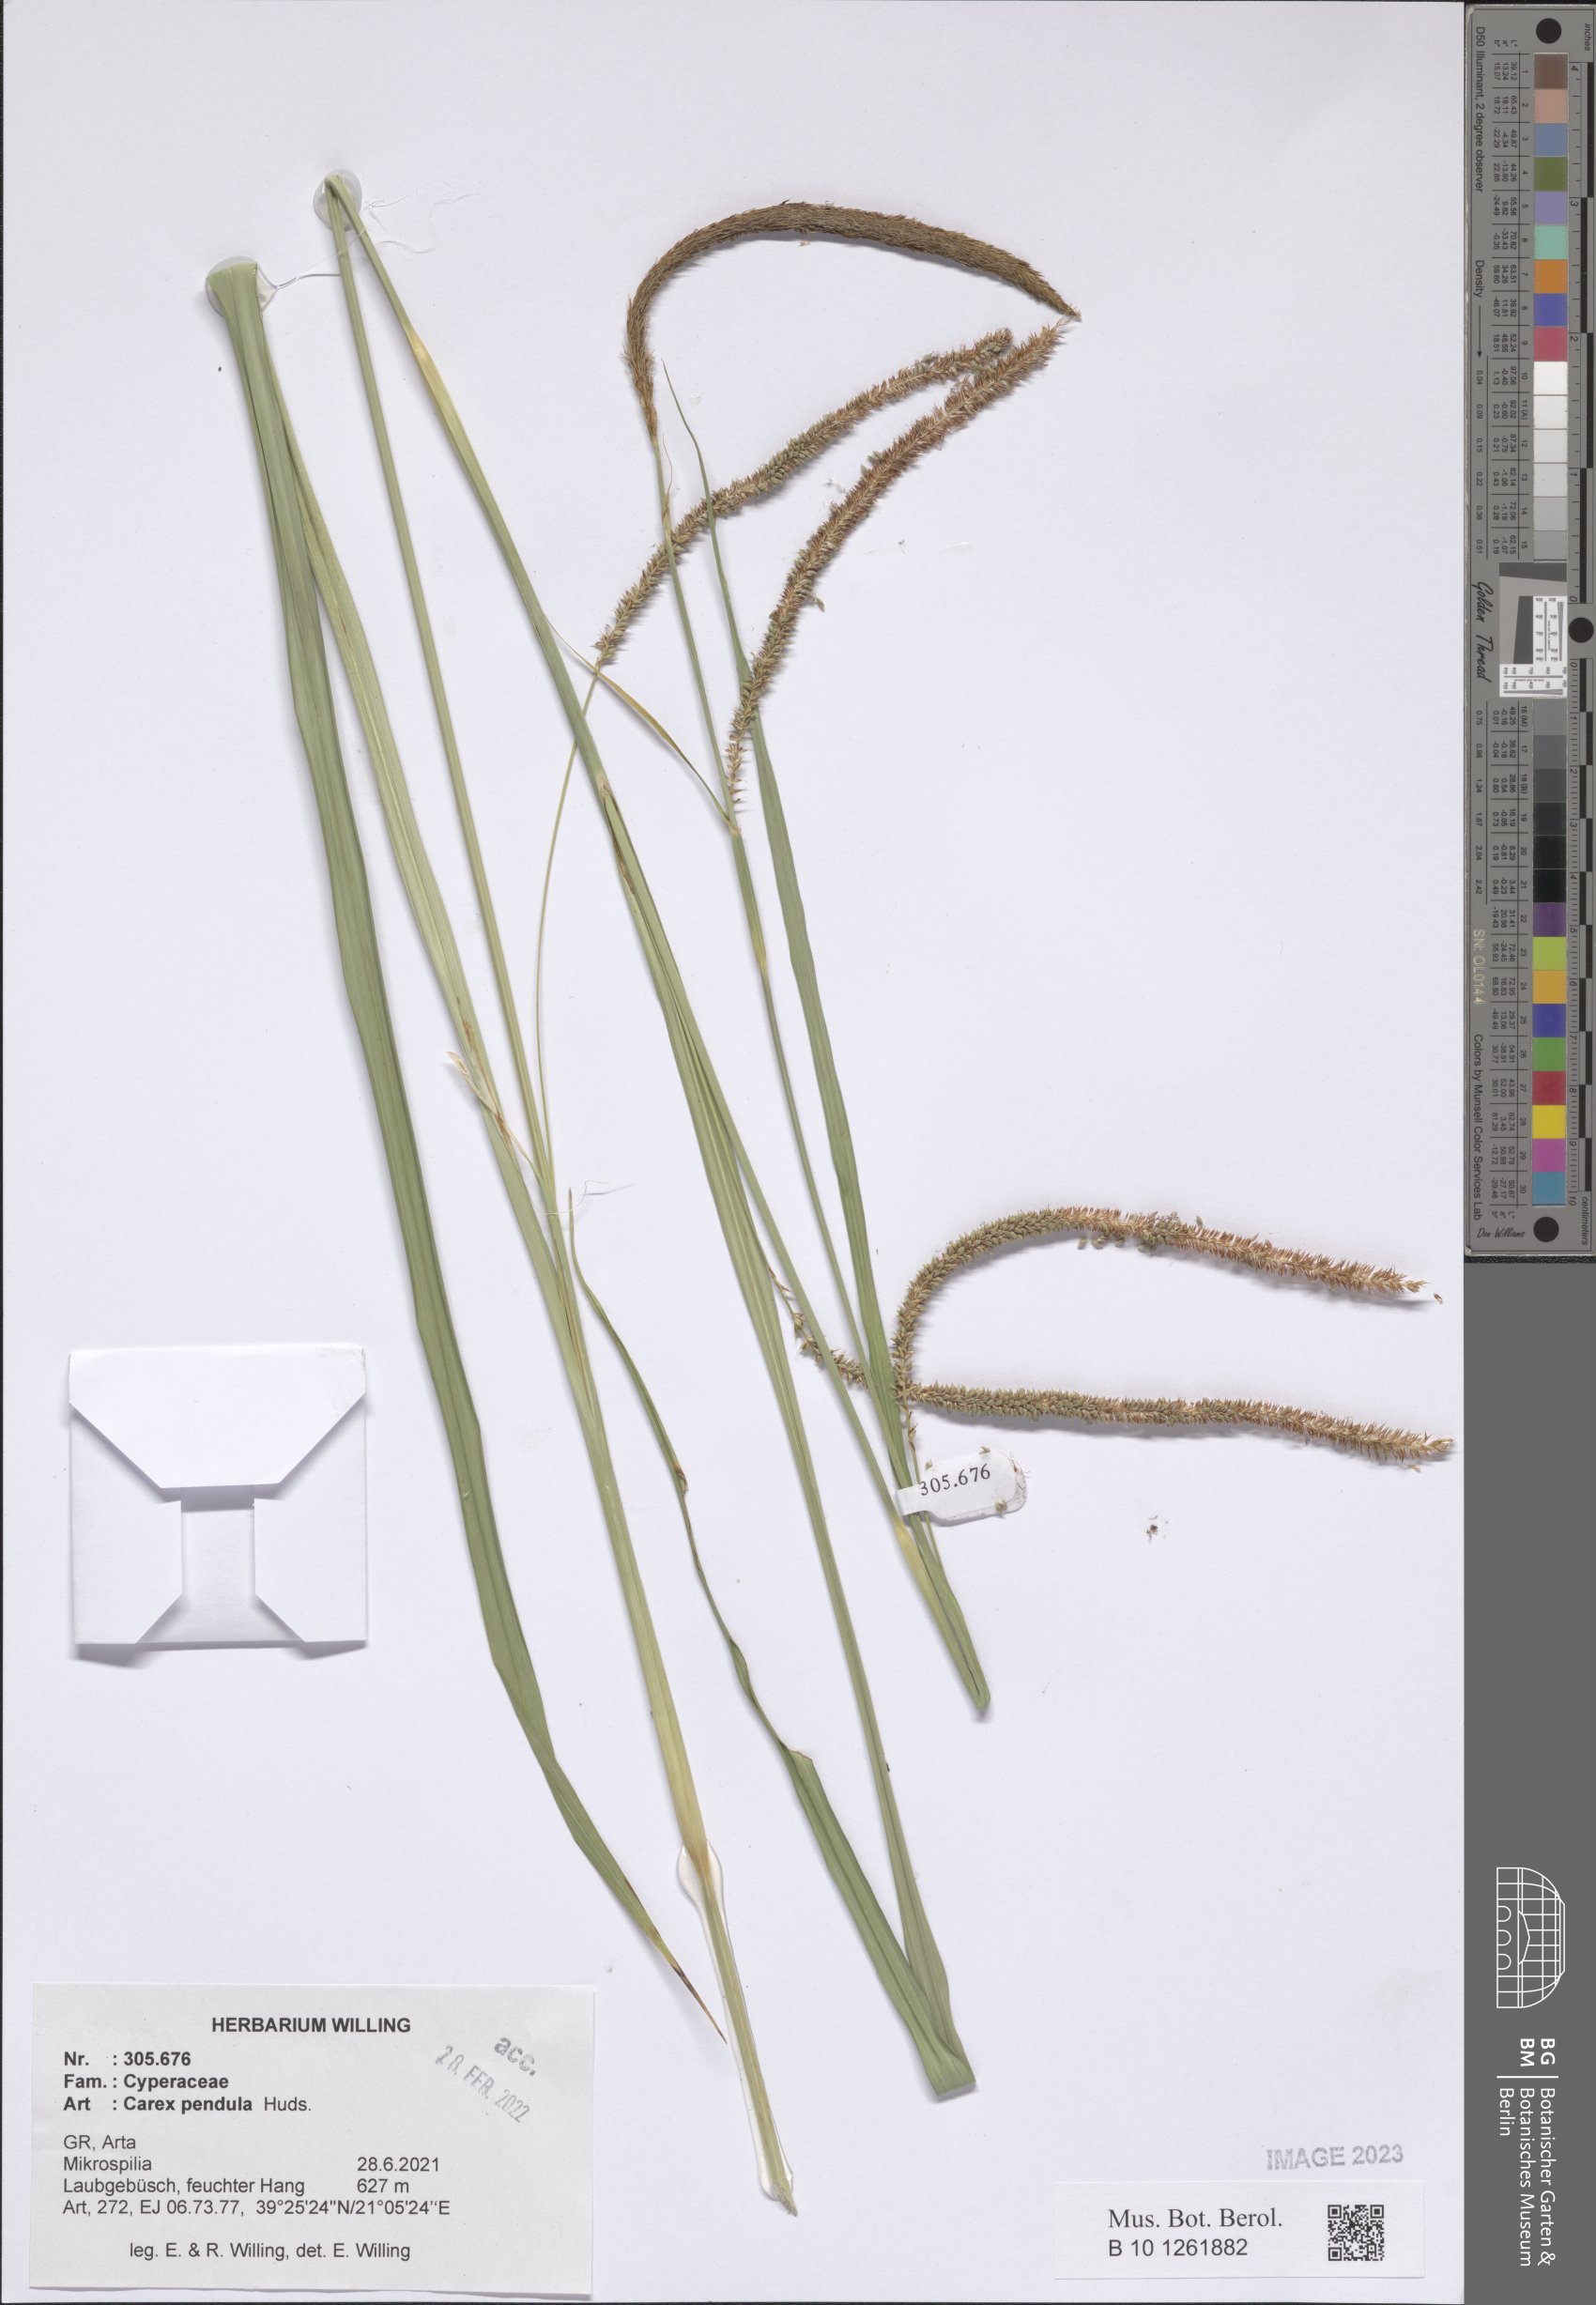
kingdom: Plantae
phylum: Tracheophyta
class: Liliopsida
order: Poales
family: Cyperaceae
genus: Carex
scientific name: Carex pendula
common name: Pendulous sedge
